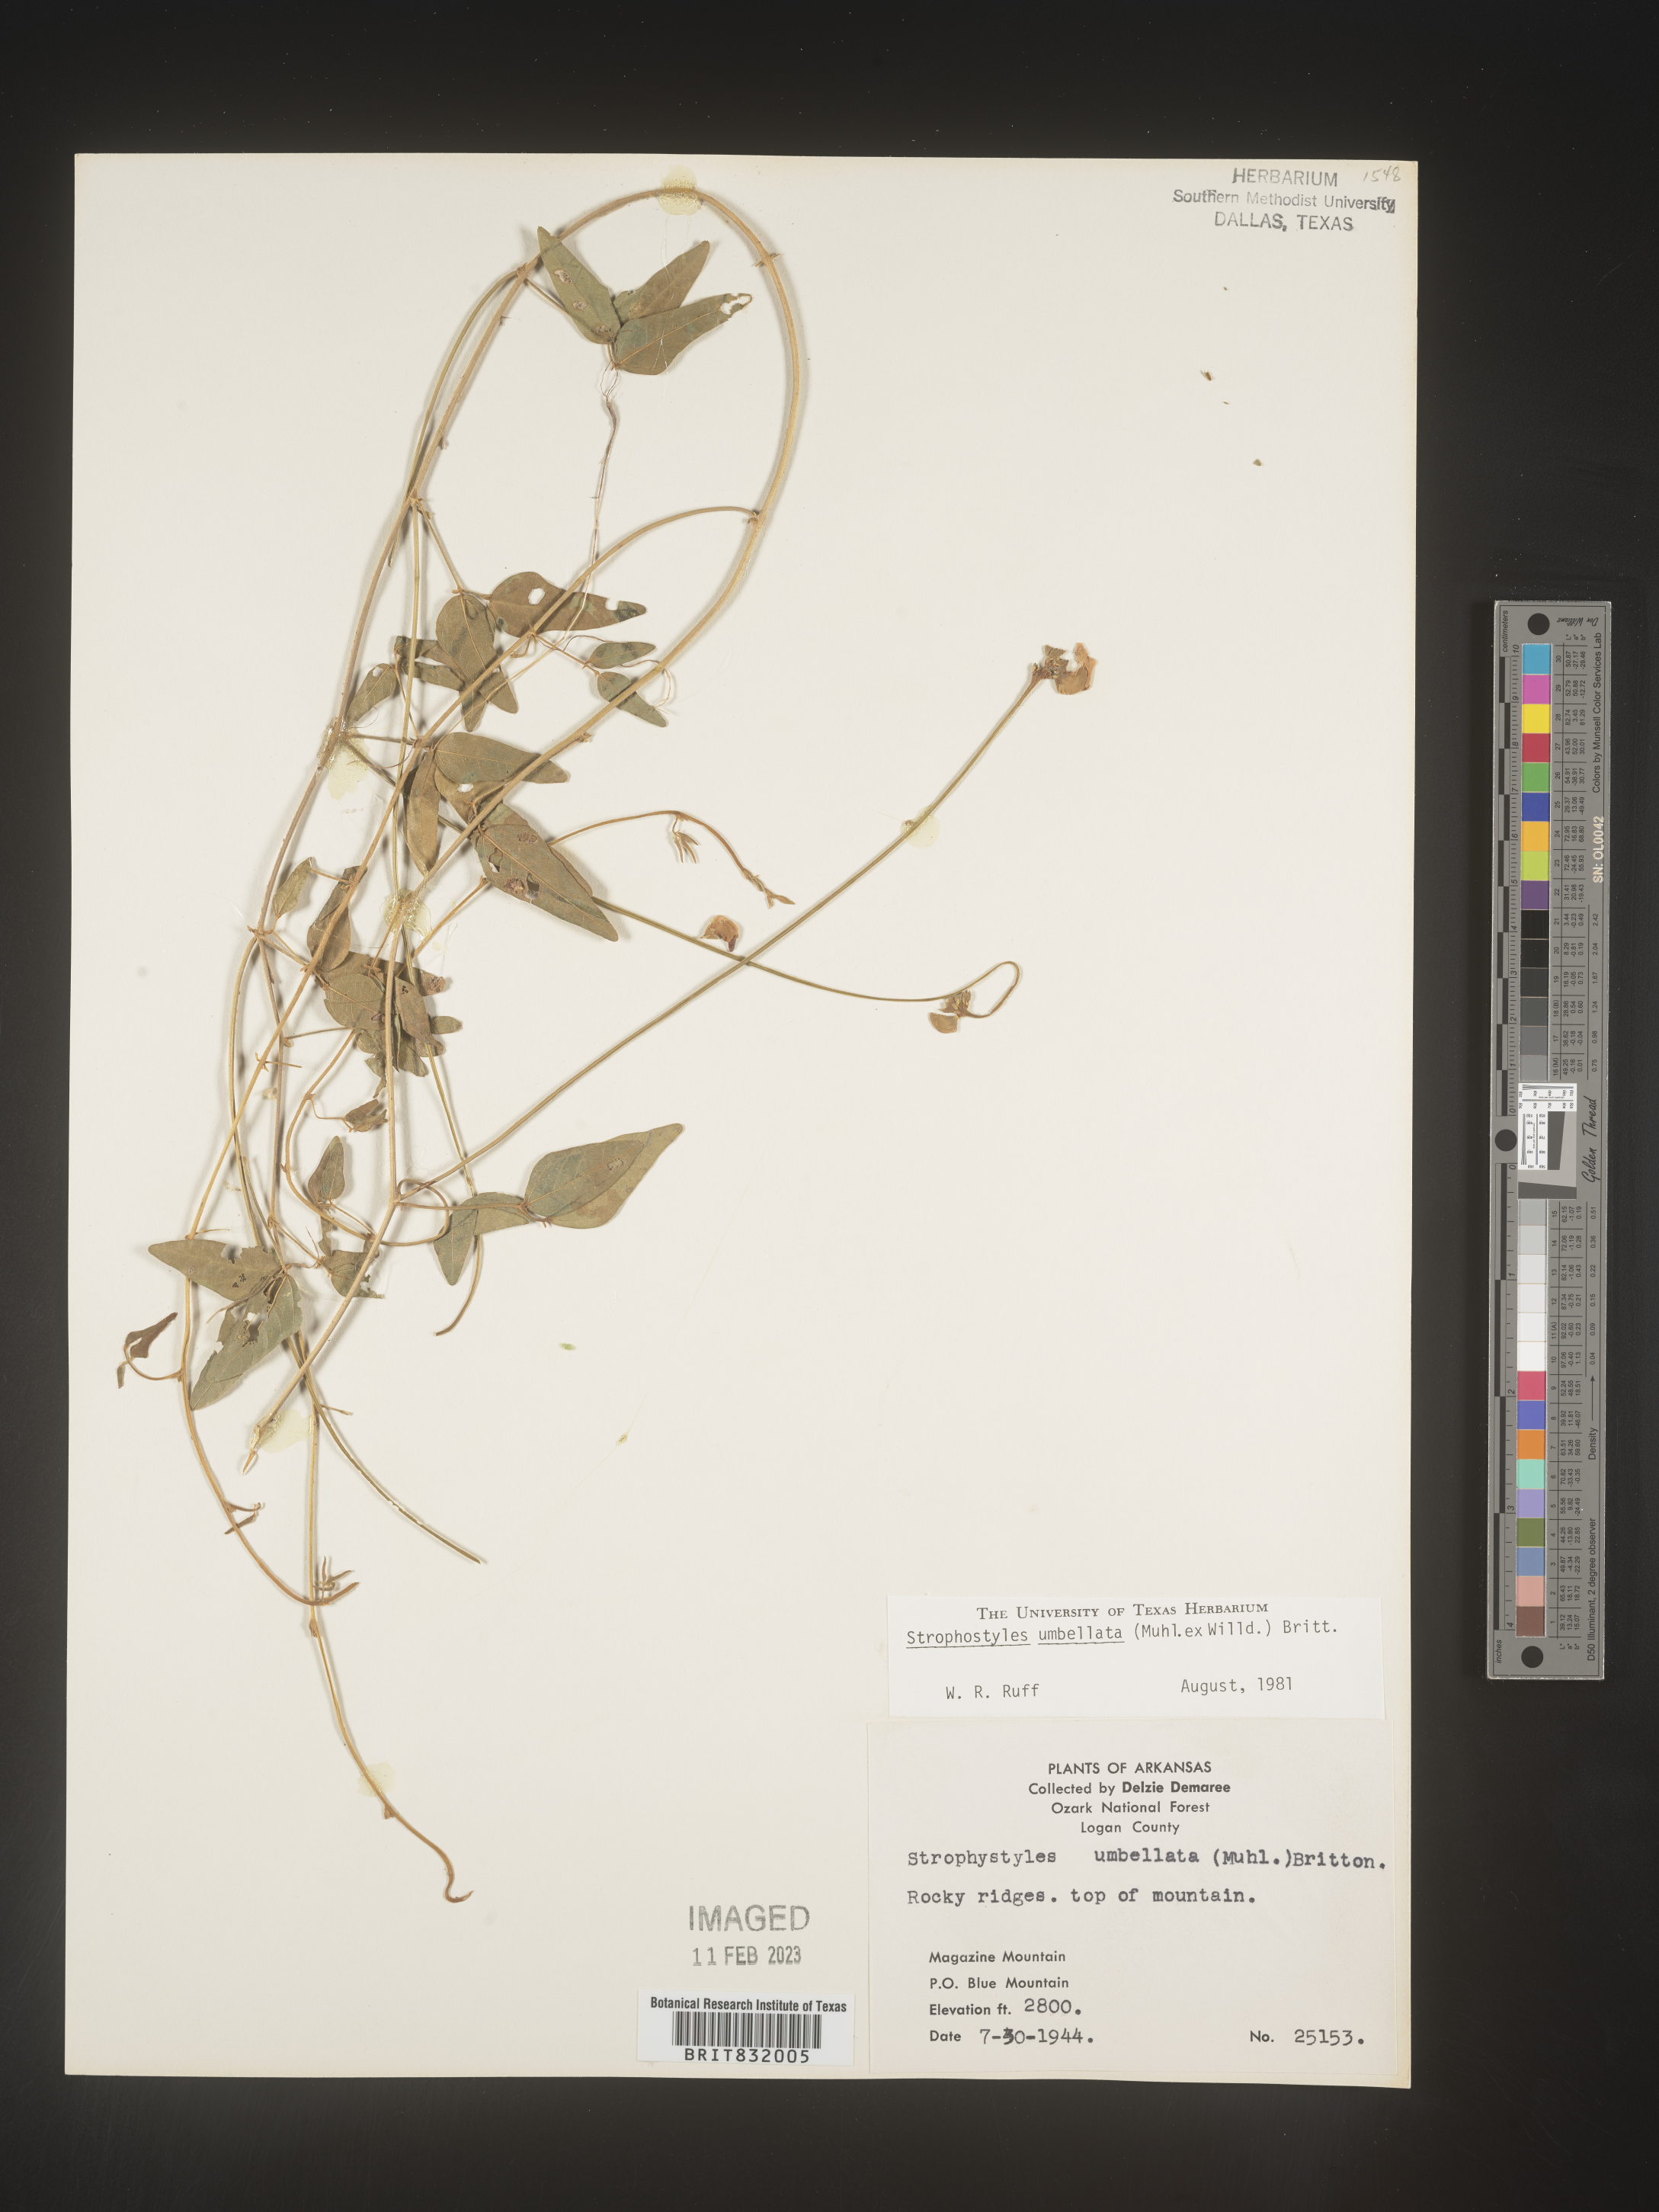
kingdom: Plantae
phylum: Tracheophyta
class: Magnoliopsida
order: Fabales
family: Fabaceae
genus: Strophostyles
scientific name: Strophostyles umbellata
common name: Perennial wild bean
